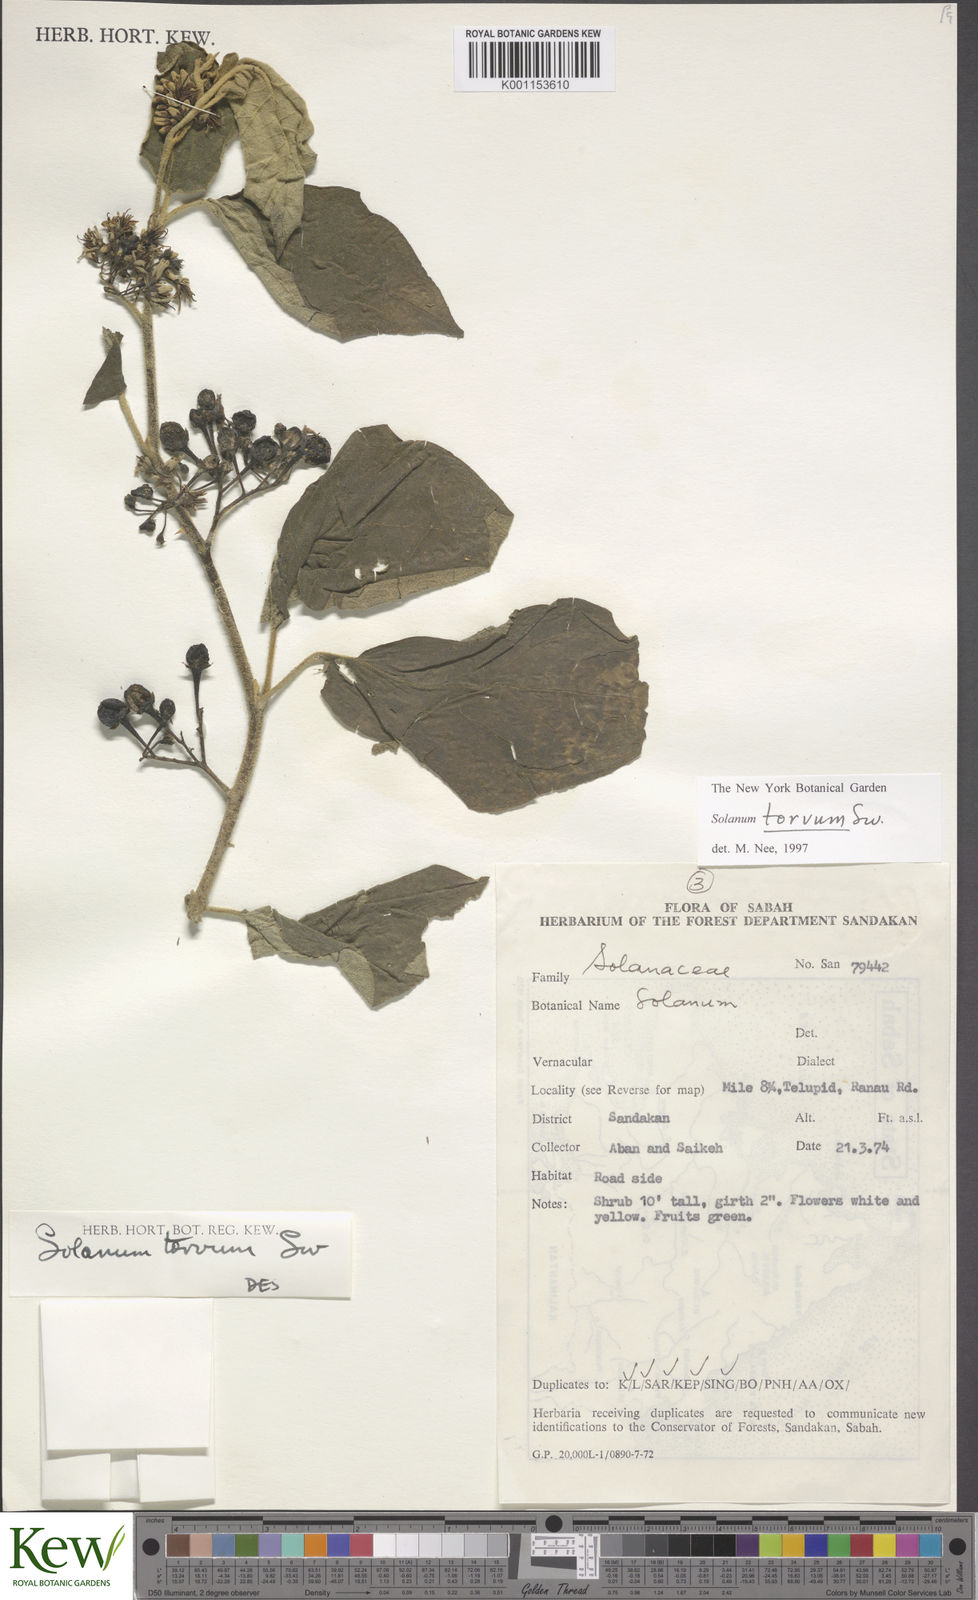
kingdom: Plantae
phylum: Tracheophyta
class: Magnoliopsida
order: Solanales
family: Solanaceae
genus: Solanum
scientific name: Solanum torvum
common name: Turkey berry
